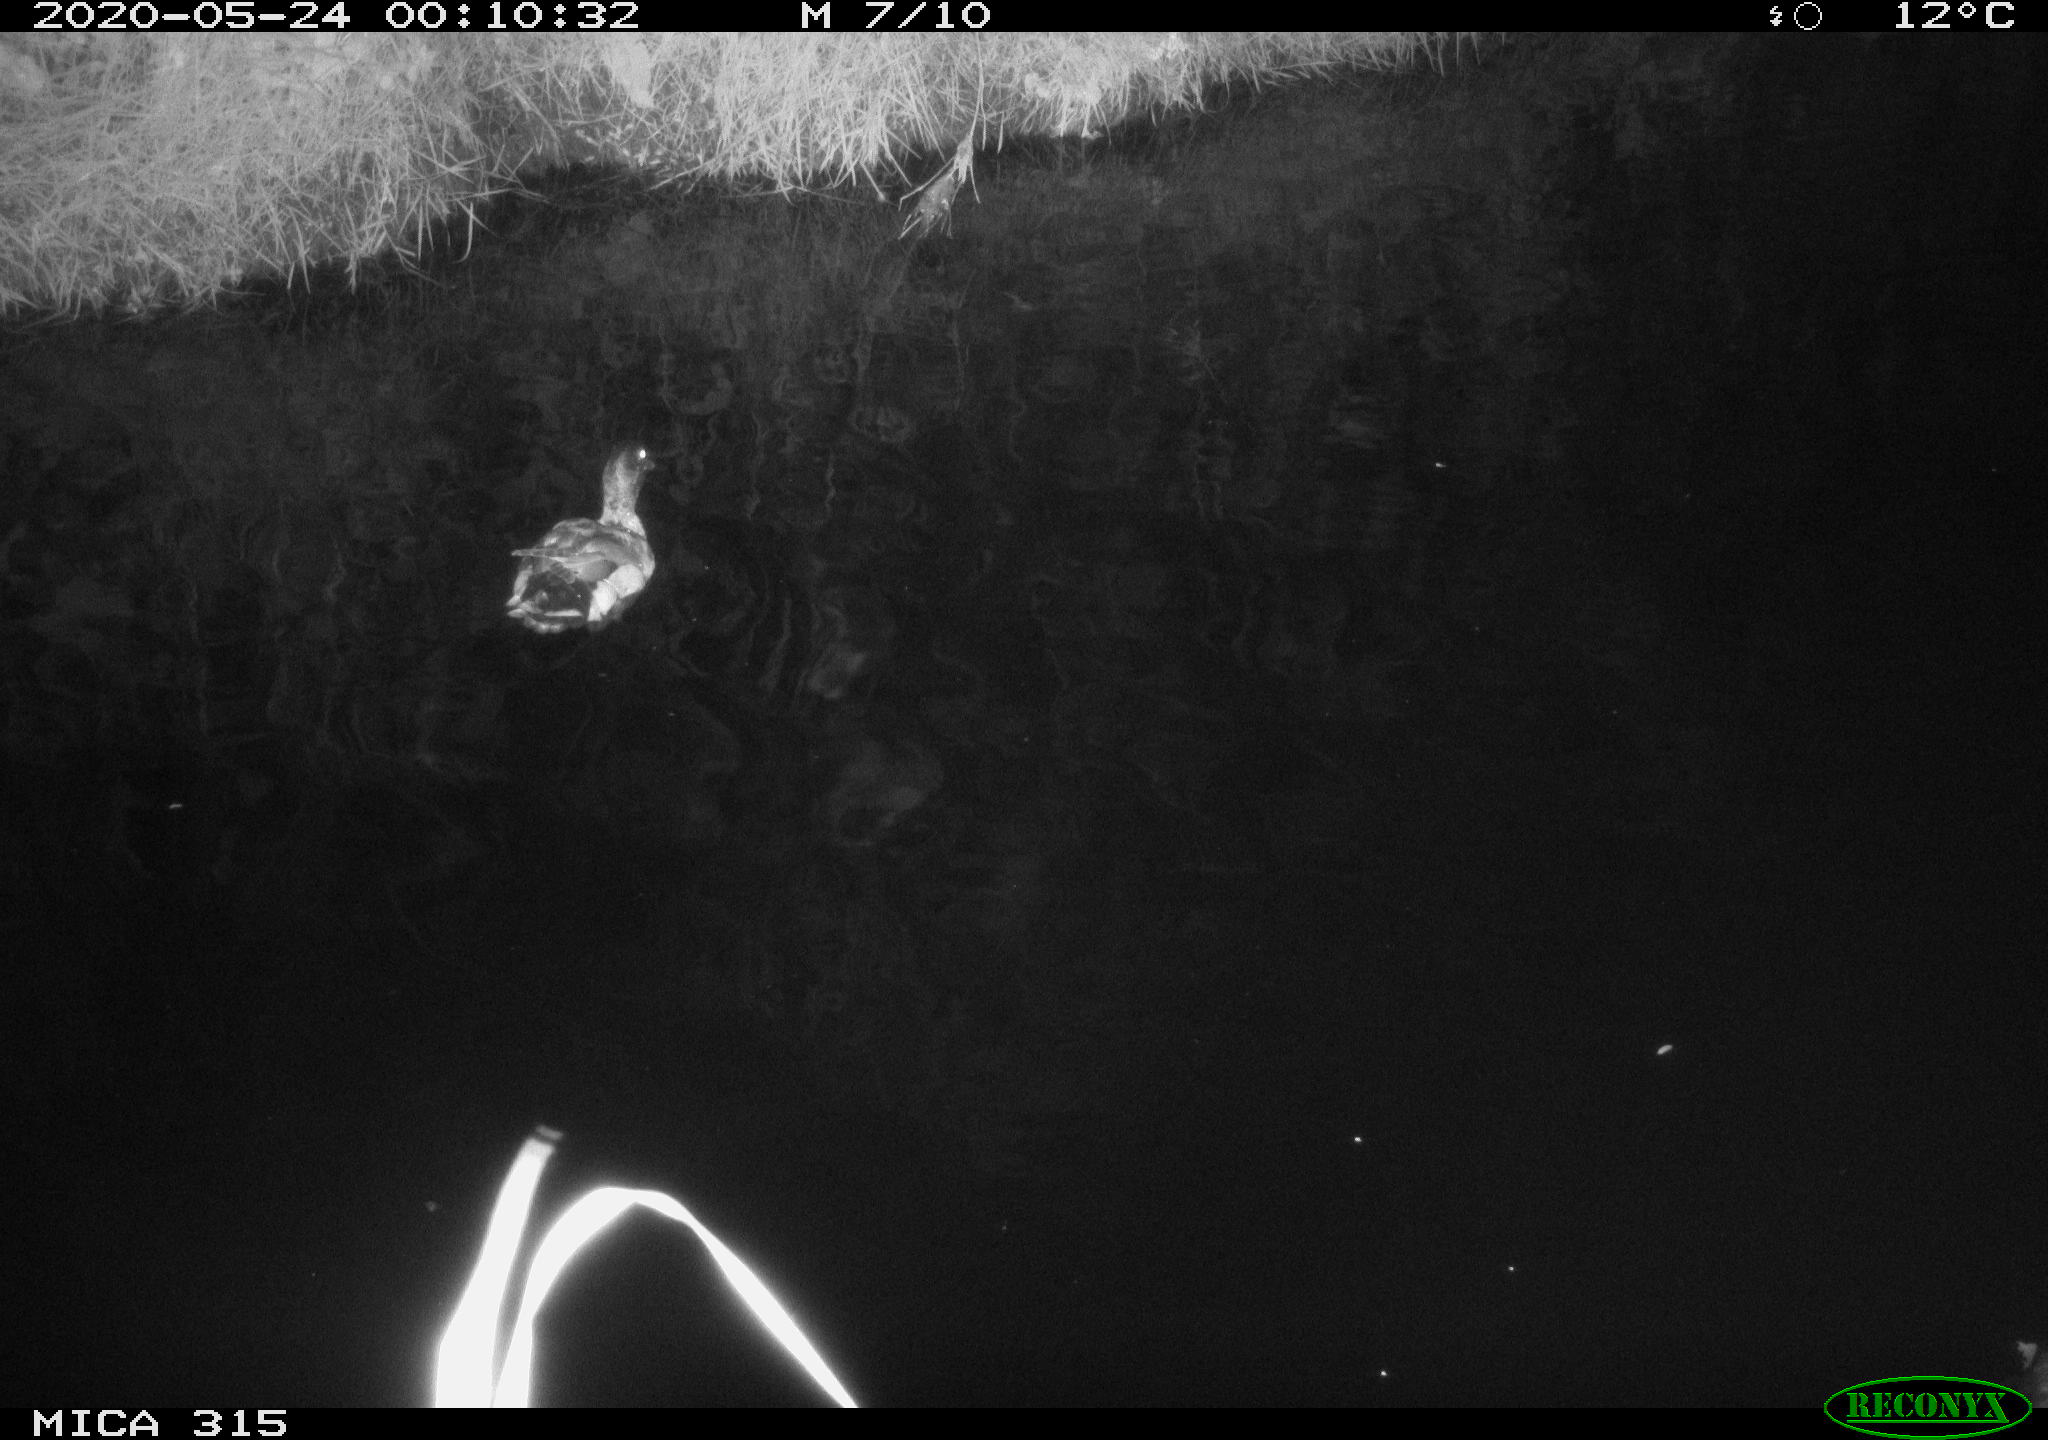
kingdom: Animalia
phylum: Chordata
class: Aves
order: Anseriformes
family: Anatidae
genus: Anas
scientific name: Anas platyrhynchos
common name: Mallard
